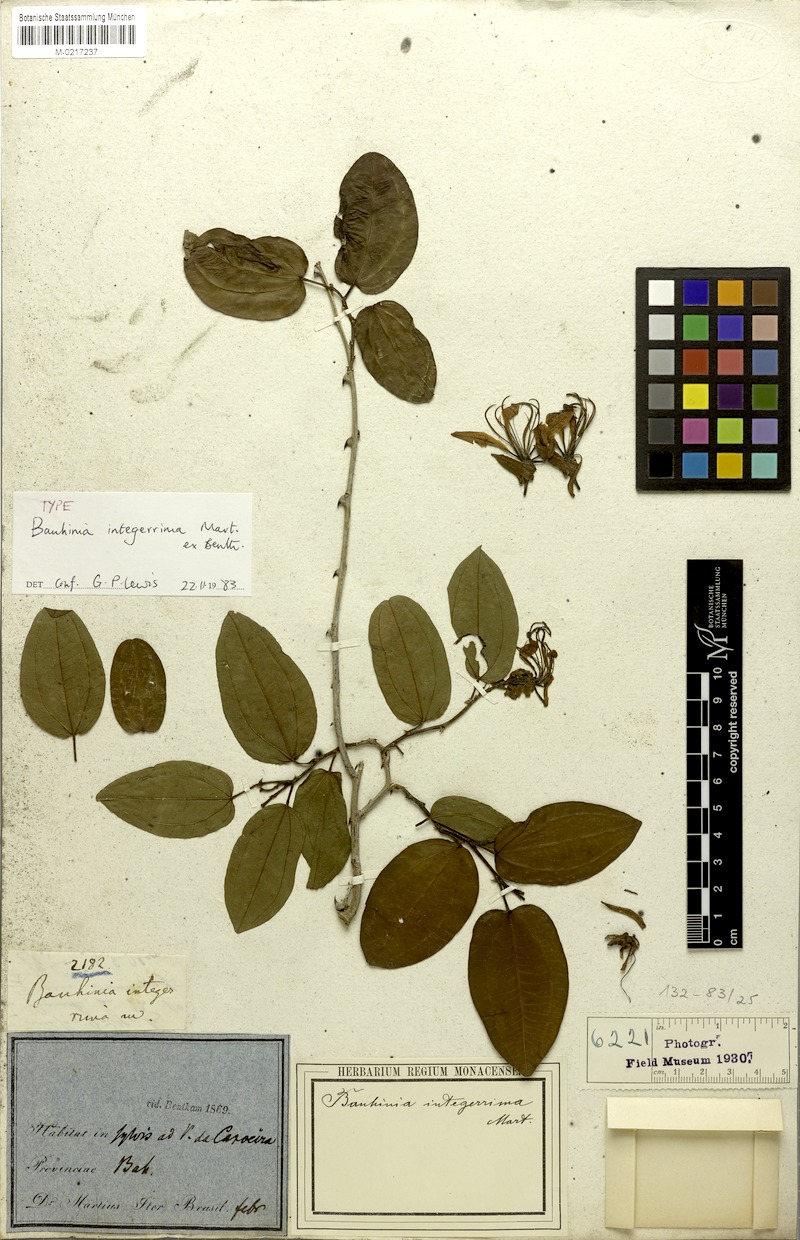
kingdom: Plantae
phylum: Tracheophyta
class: Magnoliopsida
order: Fabales
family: Fabaceae
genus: Bauhinia
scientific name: Bauhinia integerrima
